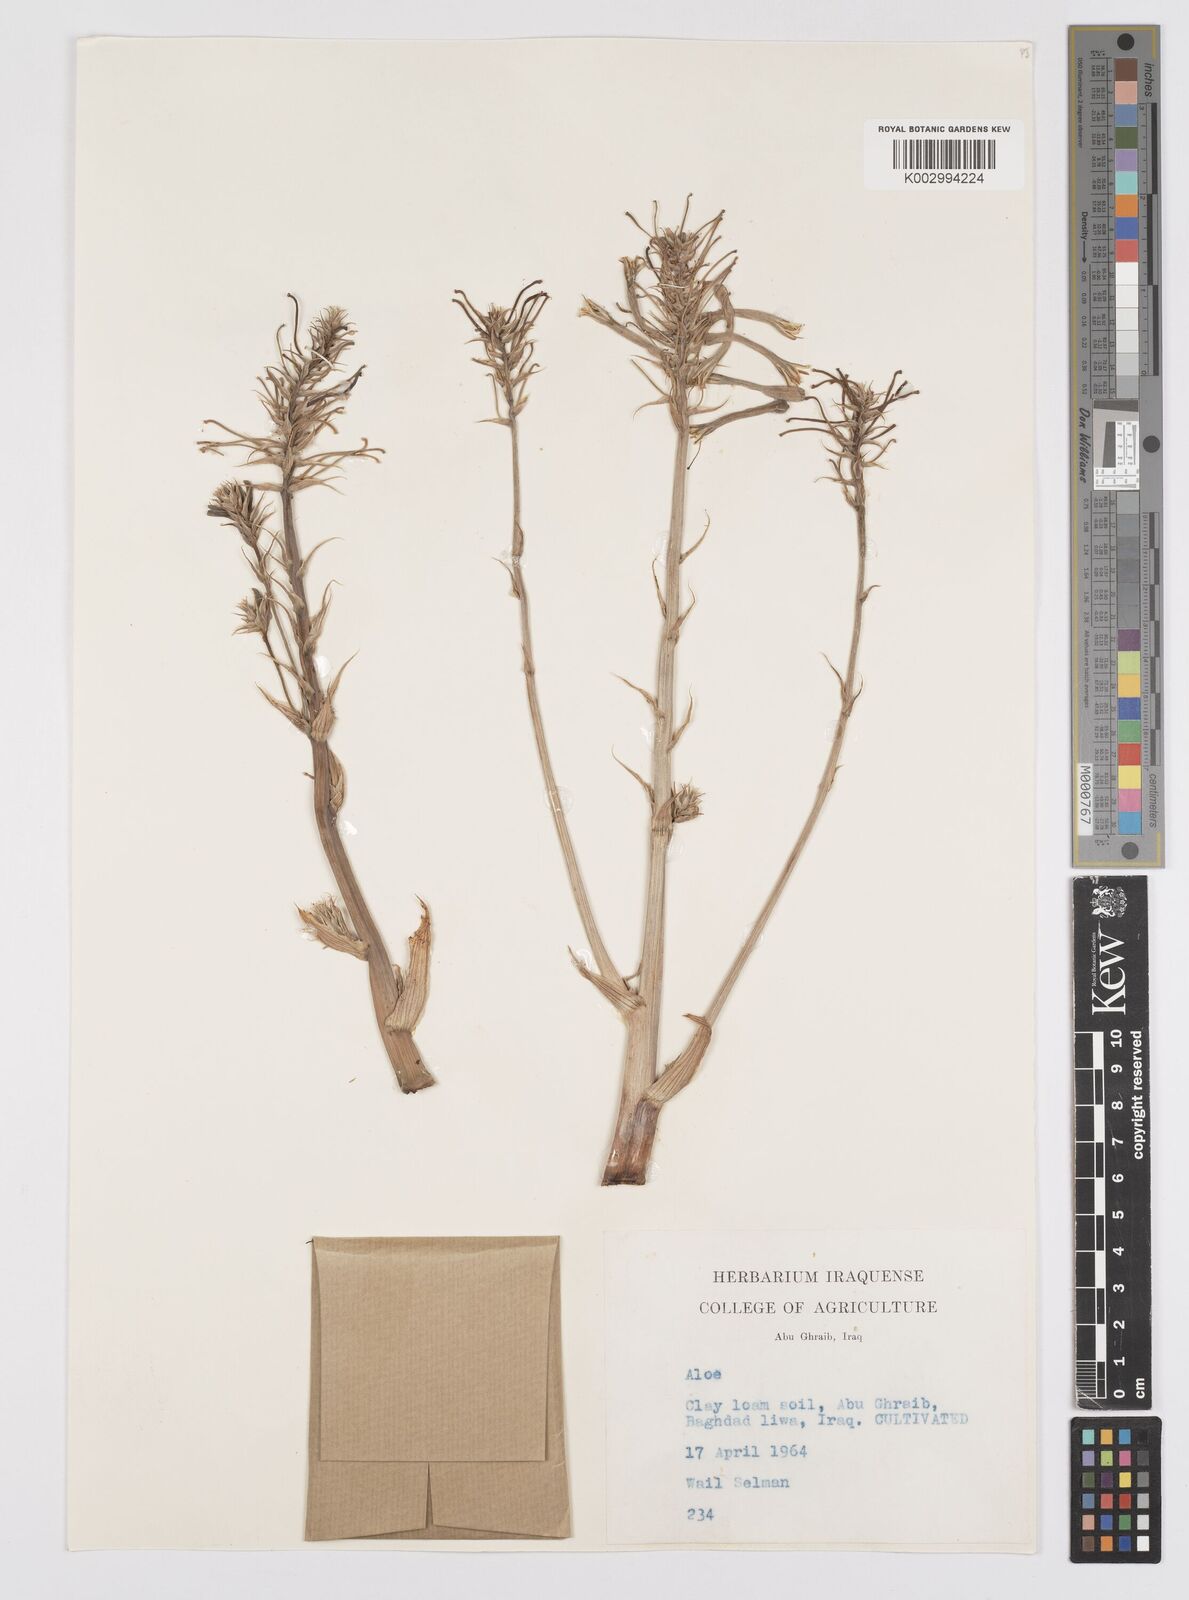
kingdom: Plantae
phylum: Tracheophyta
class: Liliopsida
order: Asparagales
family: Asphodelaceae
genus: Aloe
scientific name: Aloe
